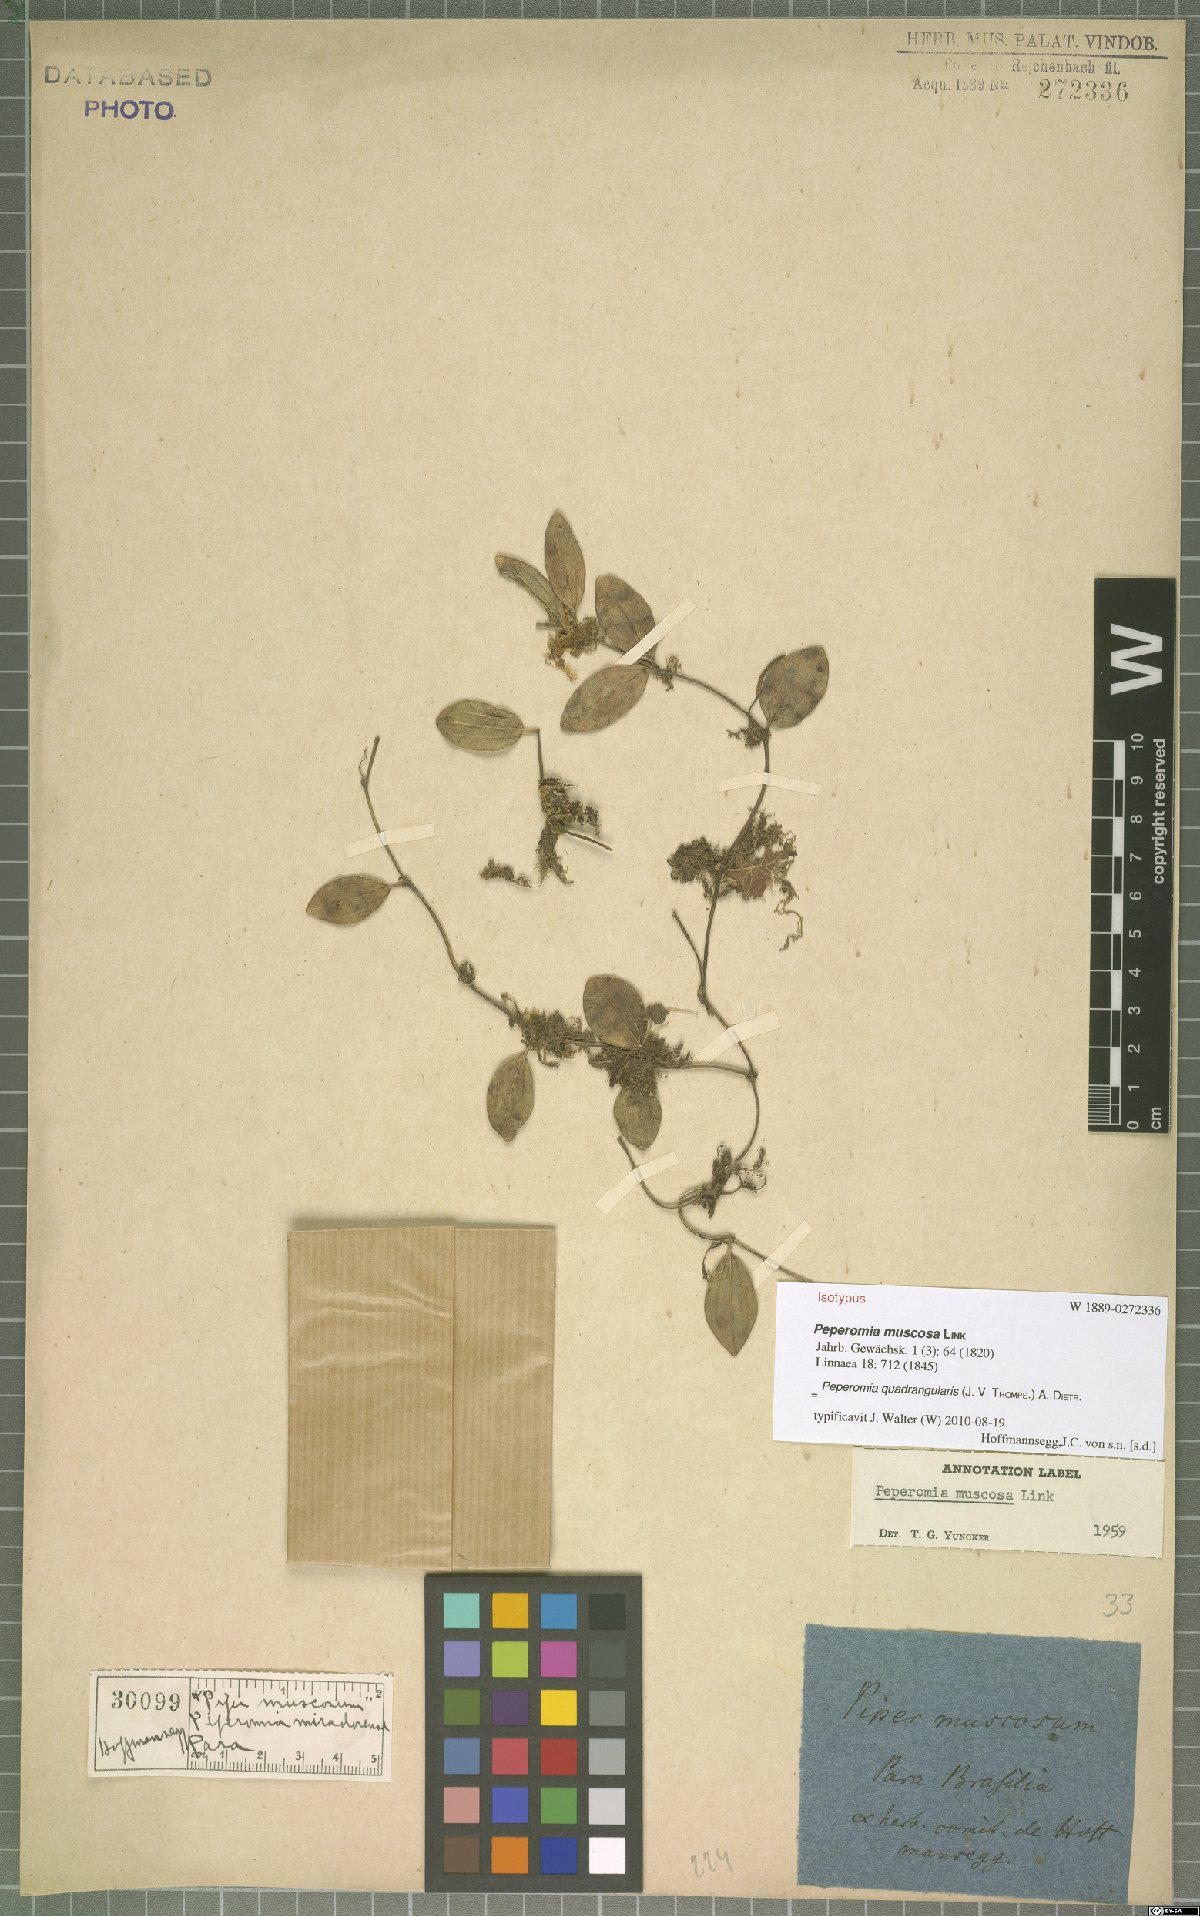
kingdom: Plantae
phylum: Tracheophyta
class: Magnoliopsida
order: Piperales
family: Piperaceae
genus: Peperomia
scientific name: Peperomia quadrangularis
